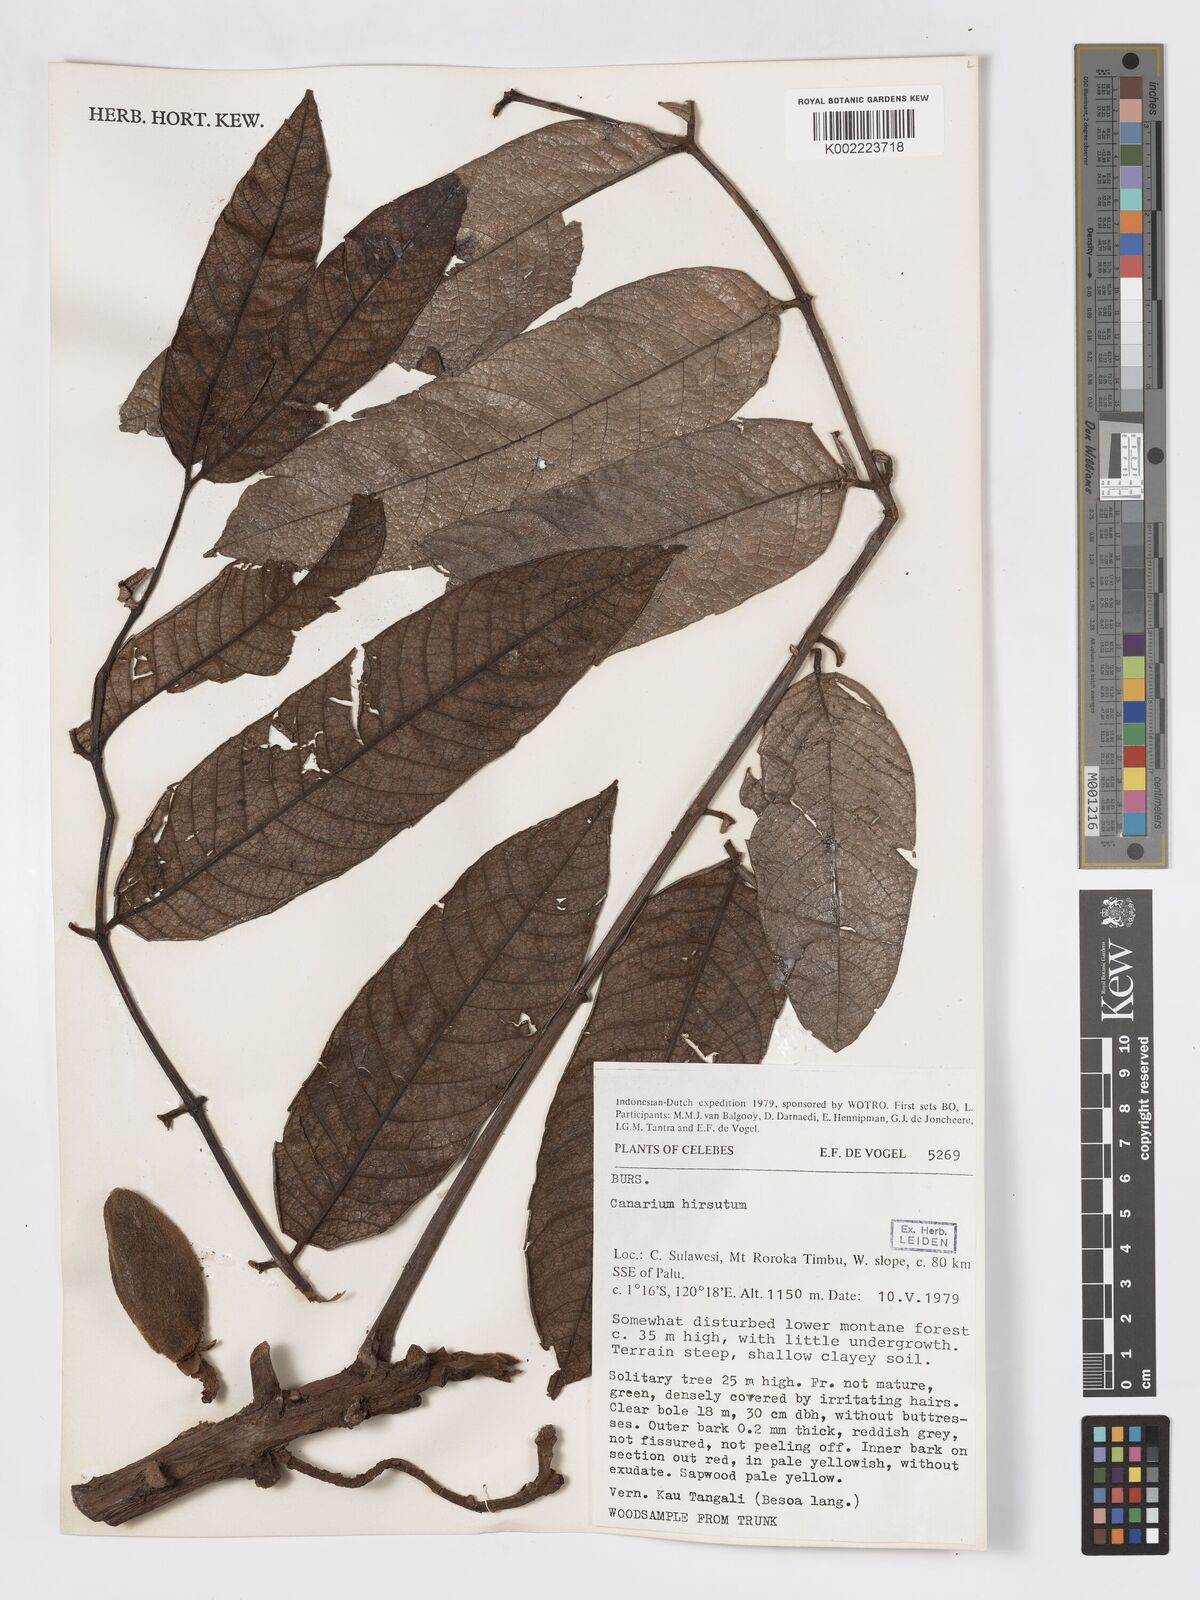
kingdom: Plantae
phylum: Tracheophyta
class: Magnoliopsida
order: Sapindales
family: Burseraceae
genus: Canarium
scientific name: Canarium hirsutum
